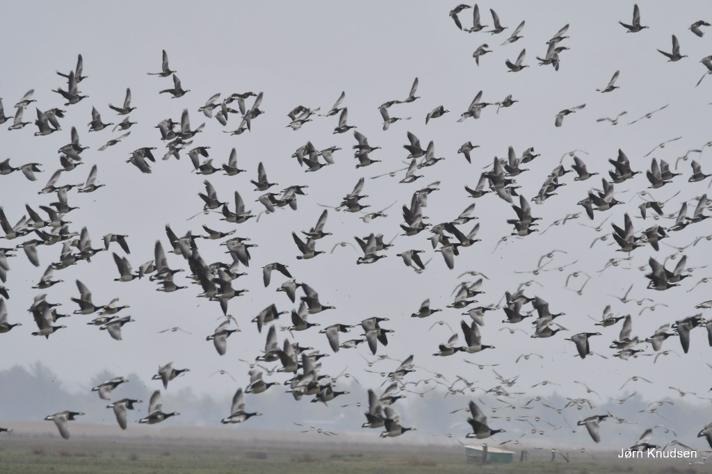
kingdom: Animalia
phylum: Chordata
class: Aves
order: Anseriformes
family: Anatidae
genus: Branta
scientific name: Branta leucopsis
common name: Bramgås
